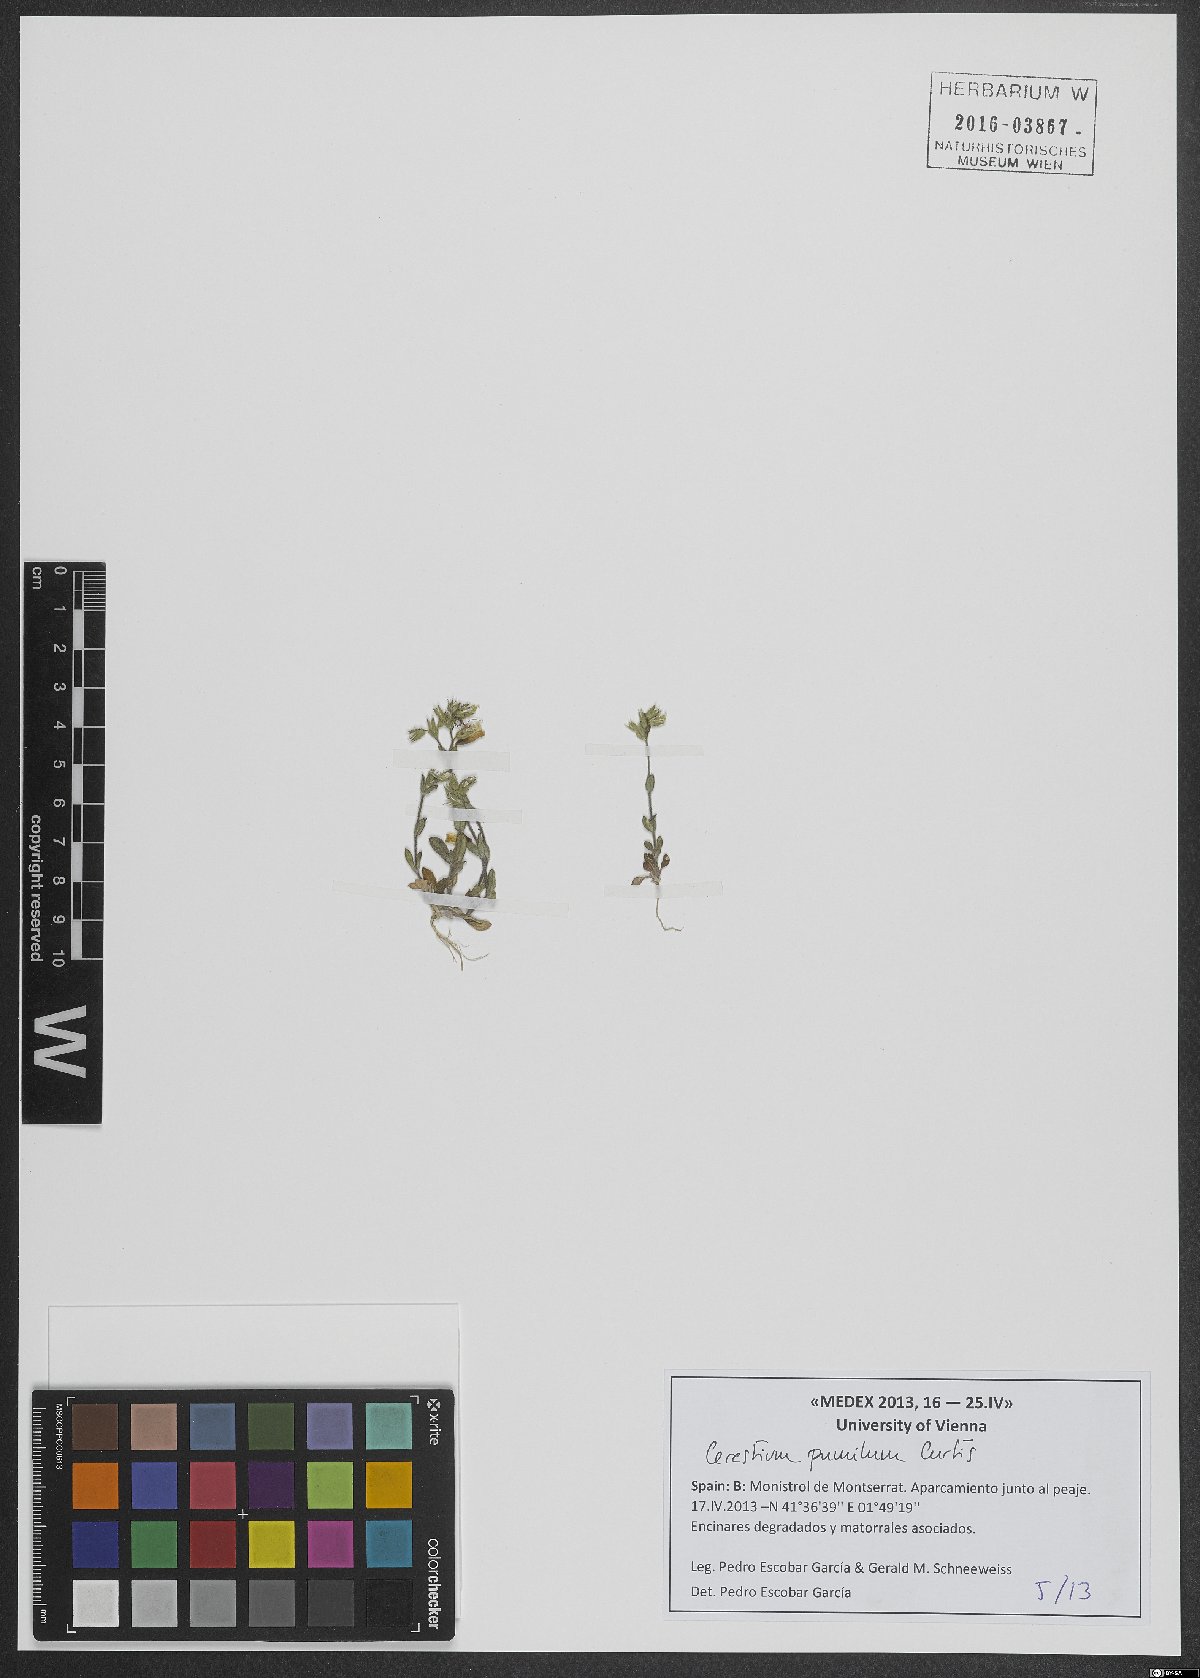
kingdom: Plantae
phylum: Tracheophyta
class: Magnoliopsida
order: Caryophyllales
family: Caryophyllaceae
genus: Cerastium
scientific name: Cerastium pumilum
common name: Dwarf mouse-ear
